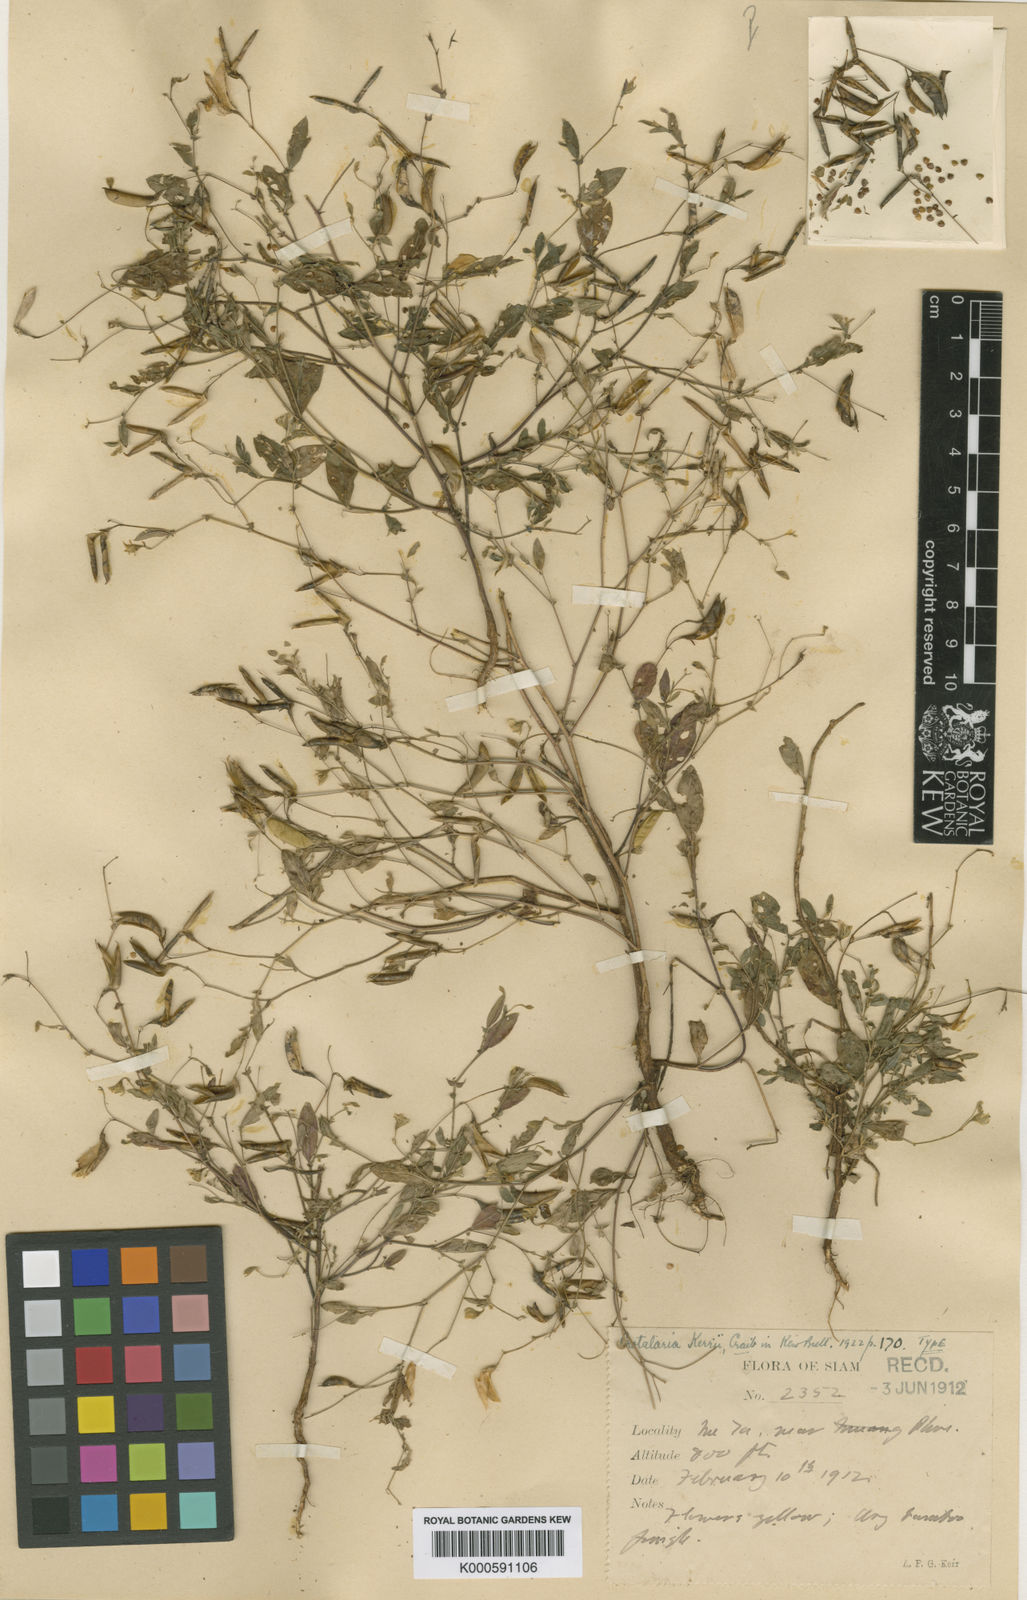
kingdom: Plantae
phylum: Tracheophyta
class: Magnoliopsida
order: Fabales
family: Fabaceae
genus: Crotalaria
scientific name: Crotalaria
